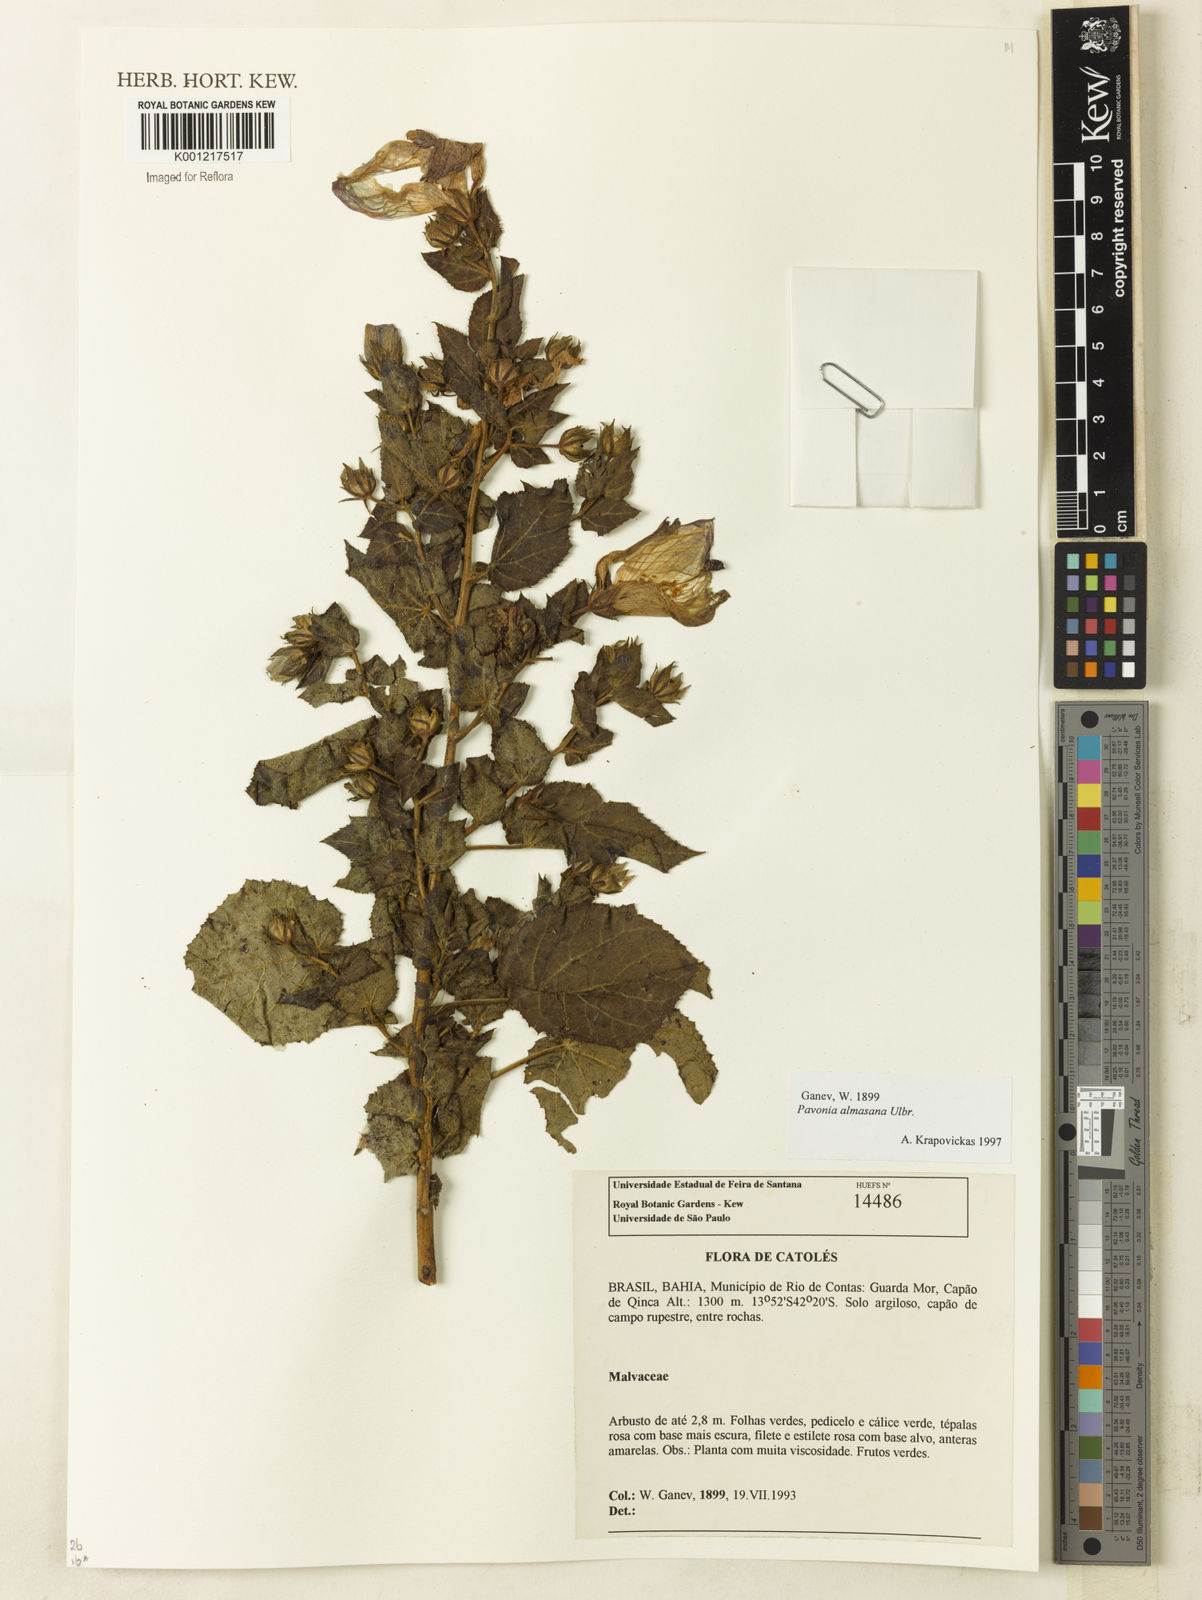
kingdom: Plantae
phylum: Tracheophyta
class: Magnoliopsida
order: Malvales
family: Malvaceae
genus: Pavonia
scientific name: Pavonia almasana
